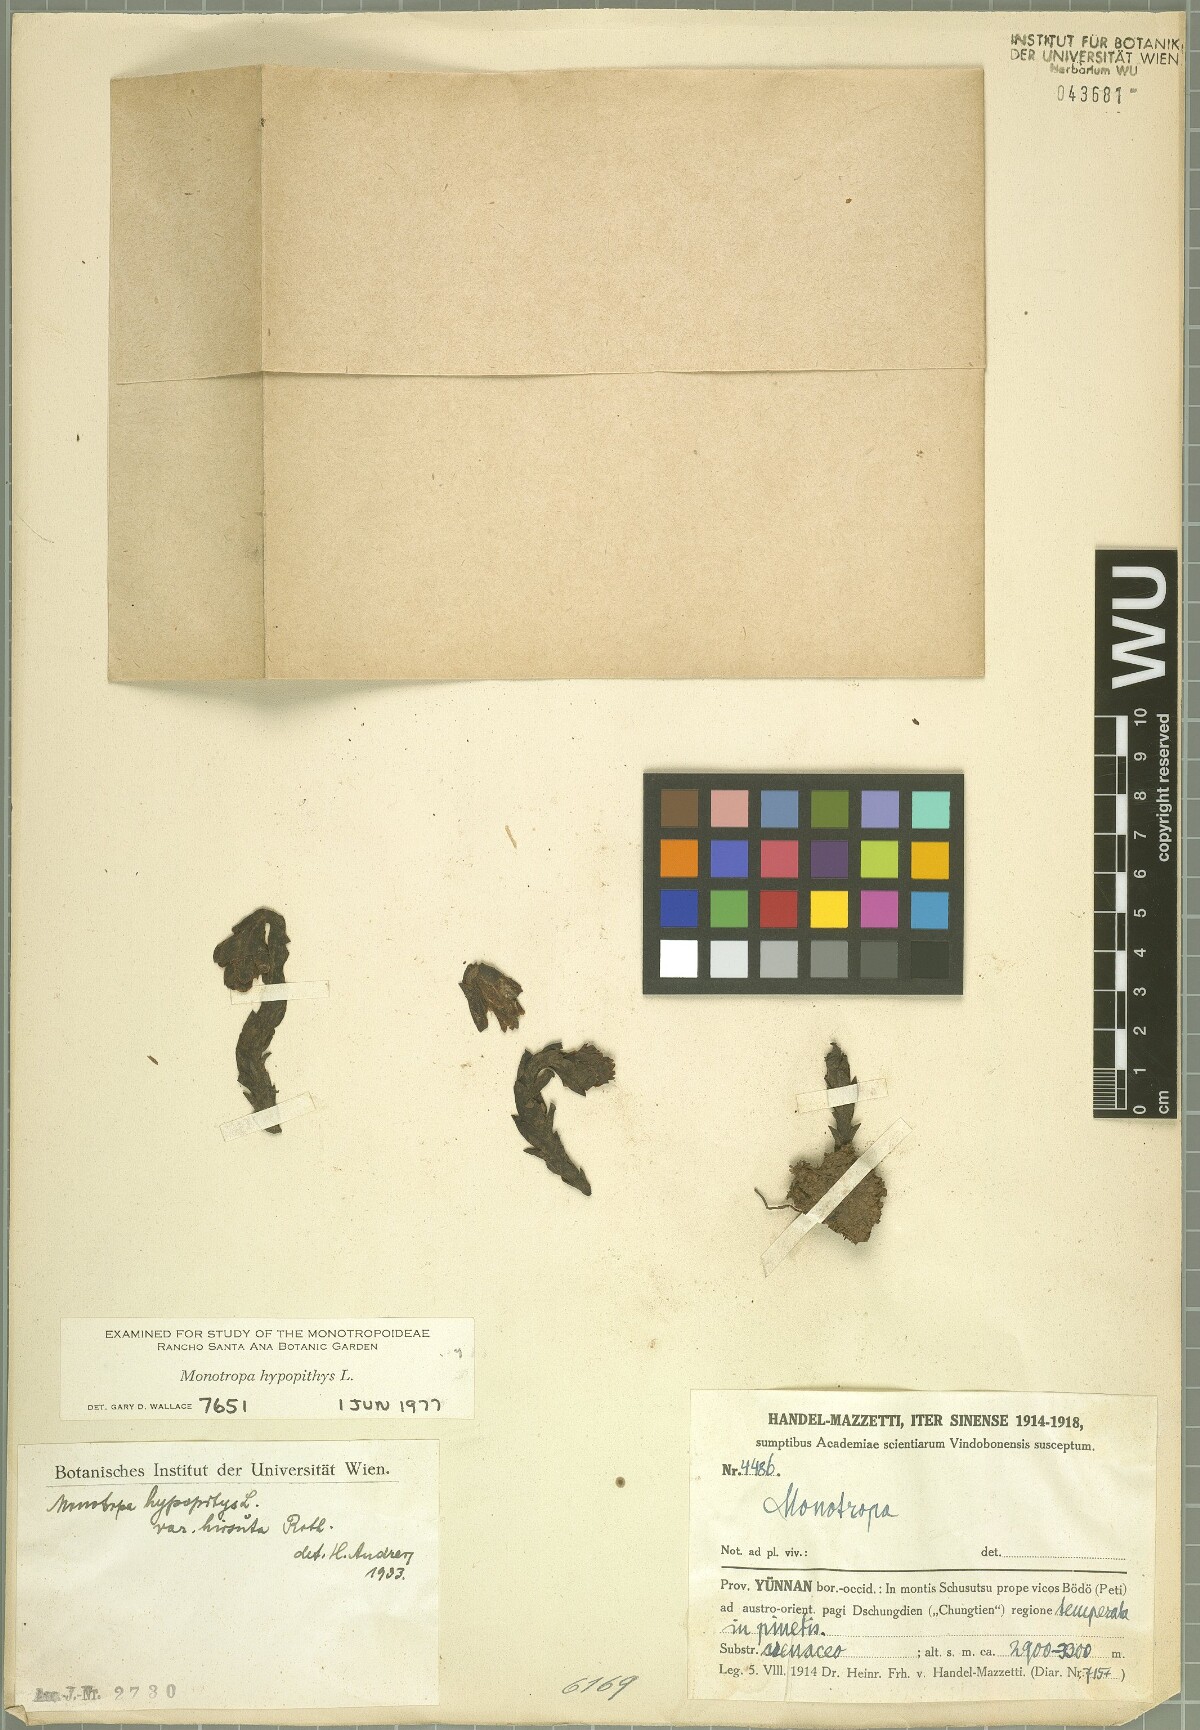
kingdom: Plantae
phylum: Tracheophyta
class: Magnoliopsida
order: Ericales
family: Ericaceae
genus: Hypopitys
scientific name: Hypopitys monotropa
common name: Yellow bird's-nest
